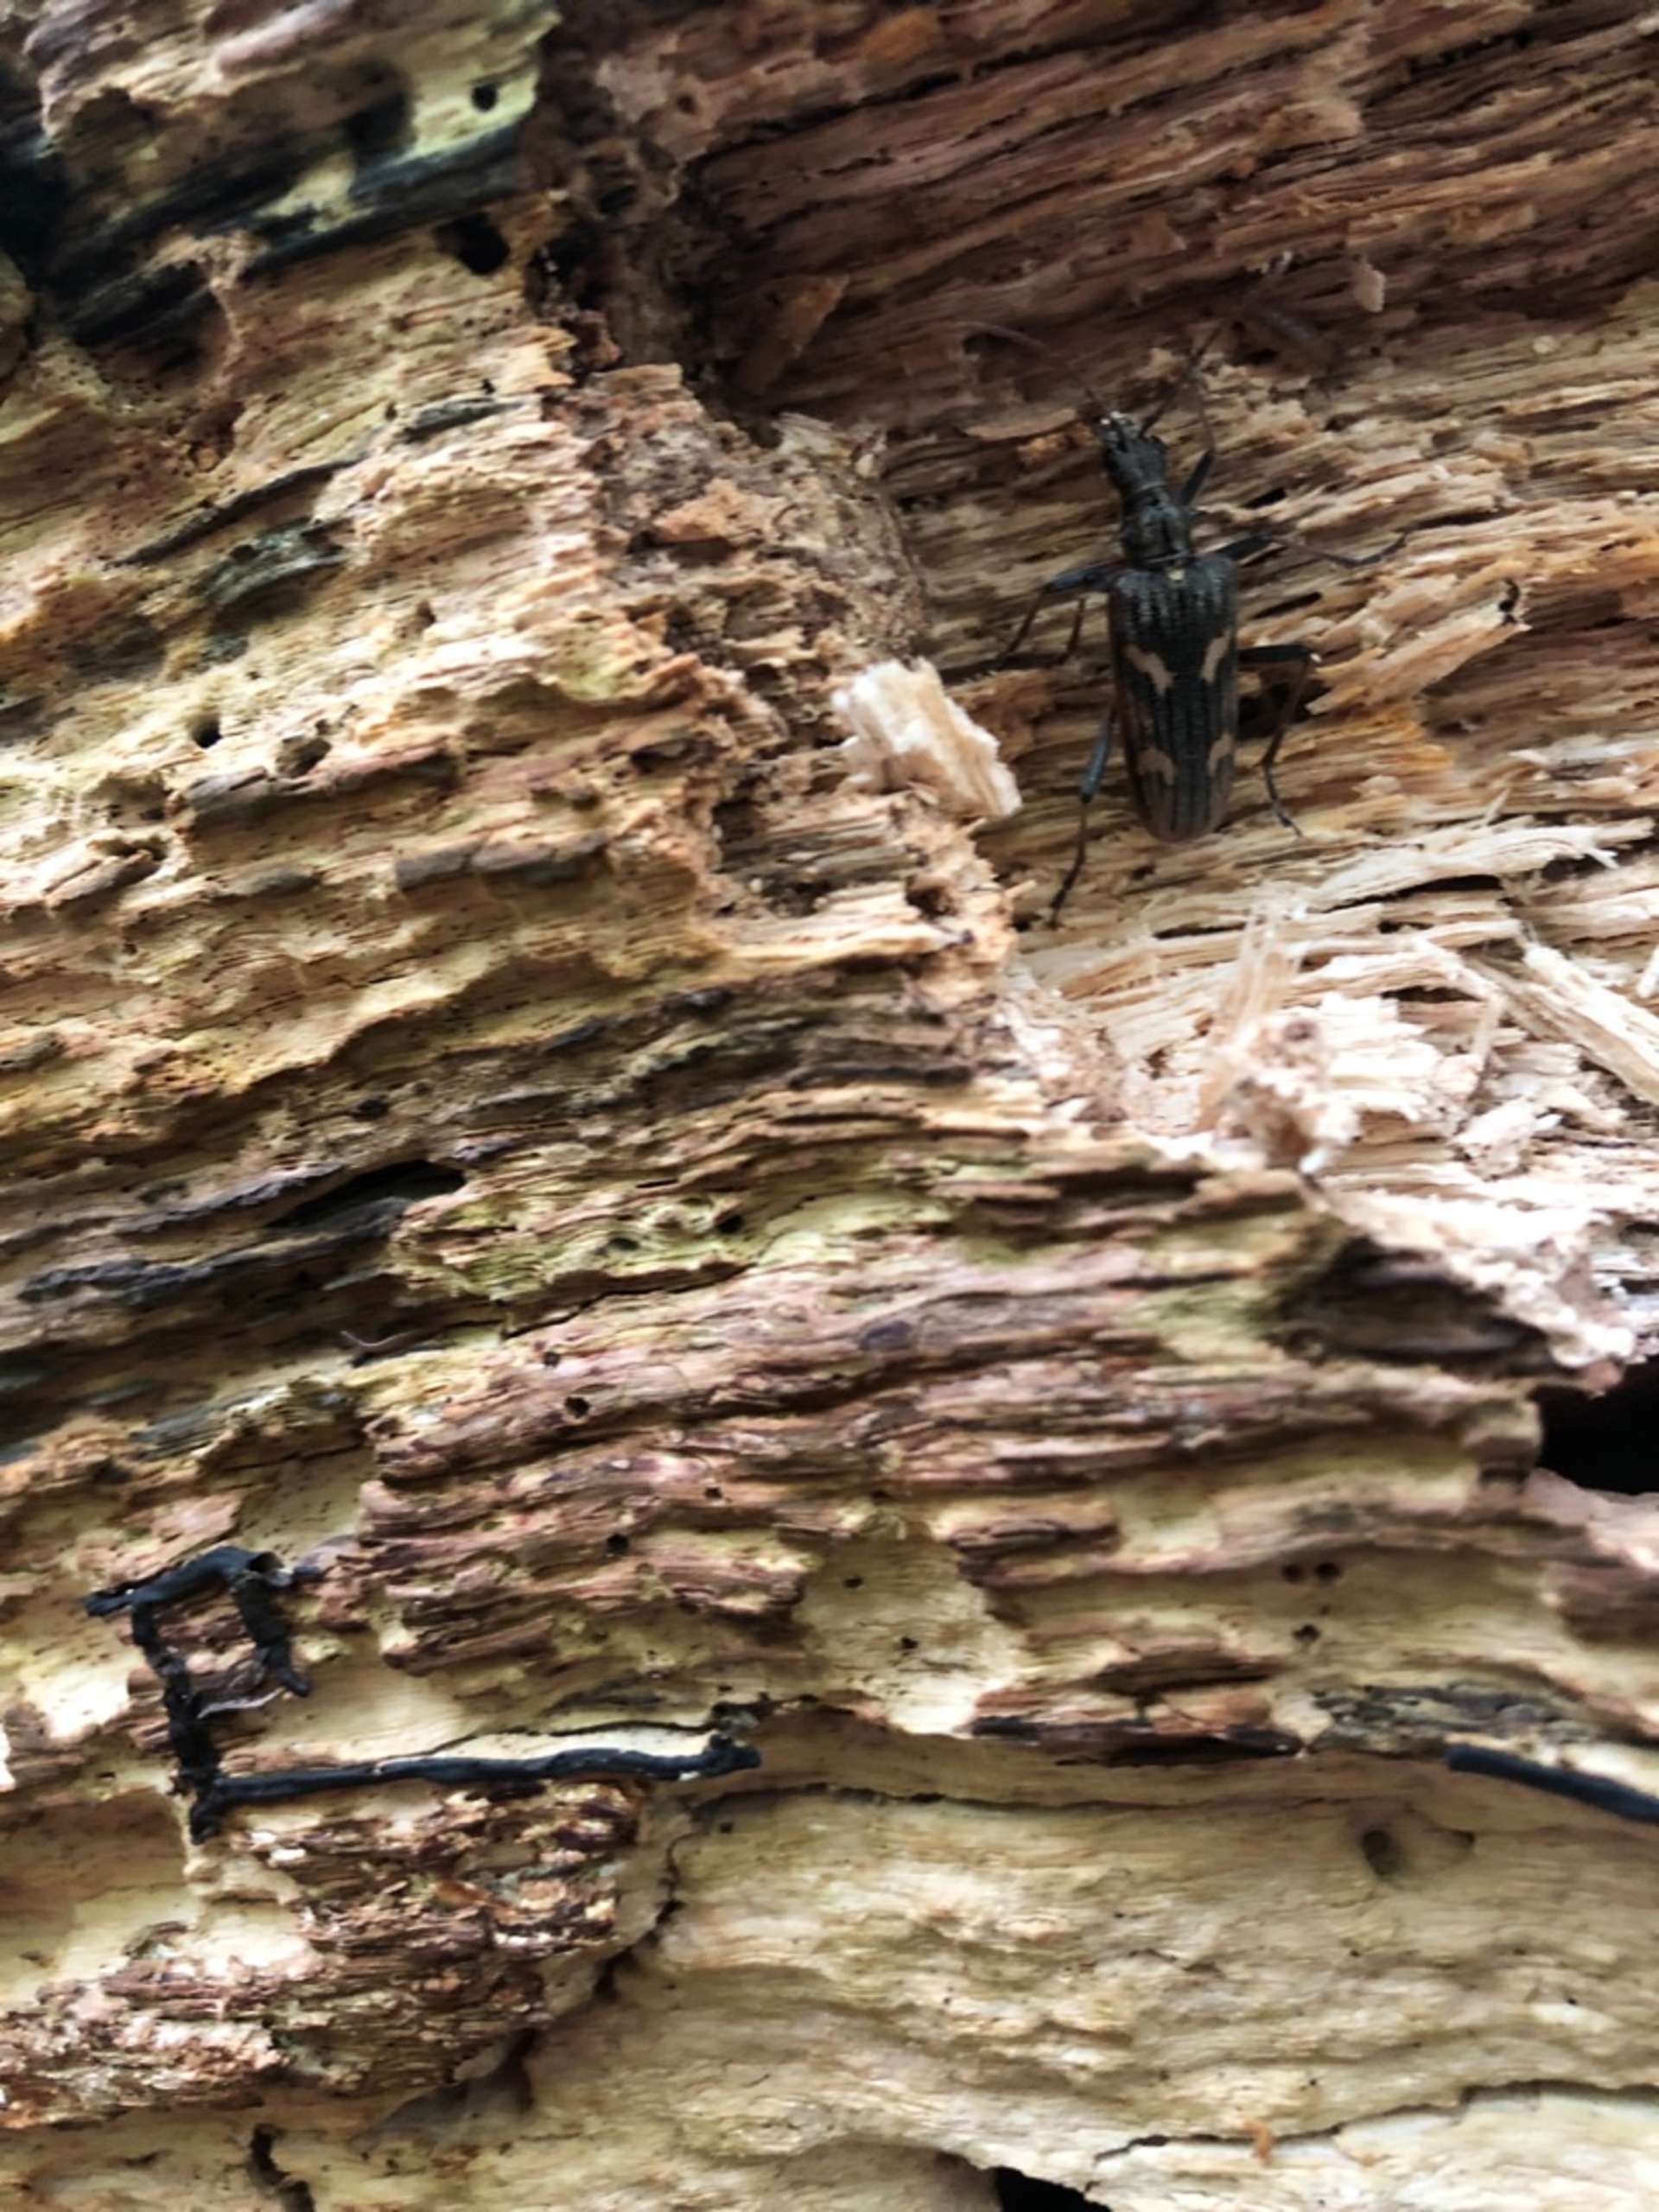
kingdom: Animalia
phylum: Arthropoda
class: Insecta
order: Coleoptera
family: Cerambycidae
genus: Rhagium
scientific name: Rhagium bifasciatum
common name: Båndet tandbuk
